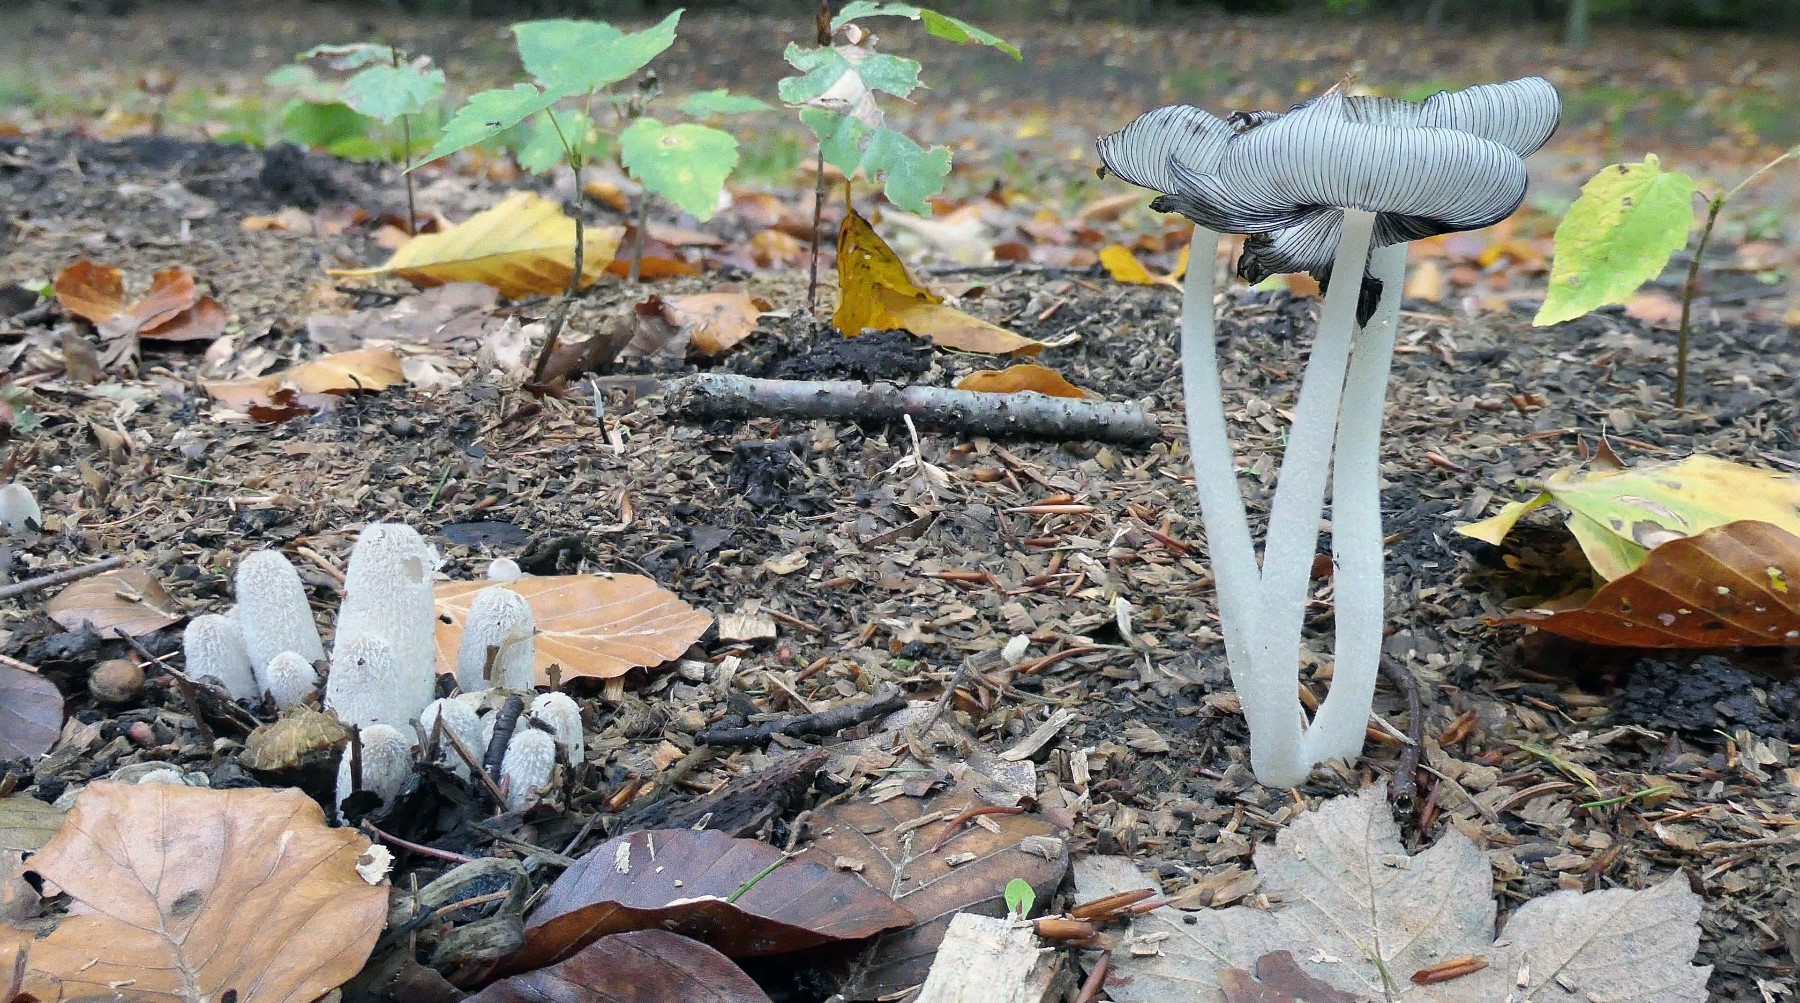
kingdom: Fungi
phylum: Basidiomycota
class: Agaricomycetes
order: Agaricales
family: Psathyrellaceae
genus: Coprinopsis
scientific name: Coprinopsis lagopus
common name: dunstokket blækhat
